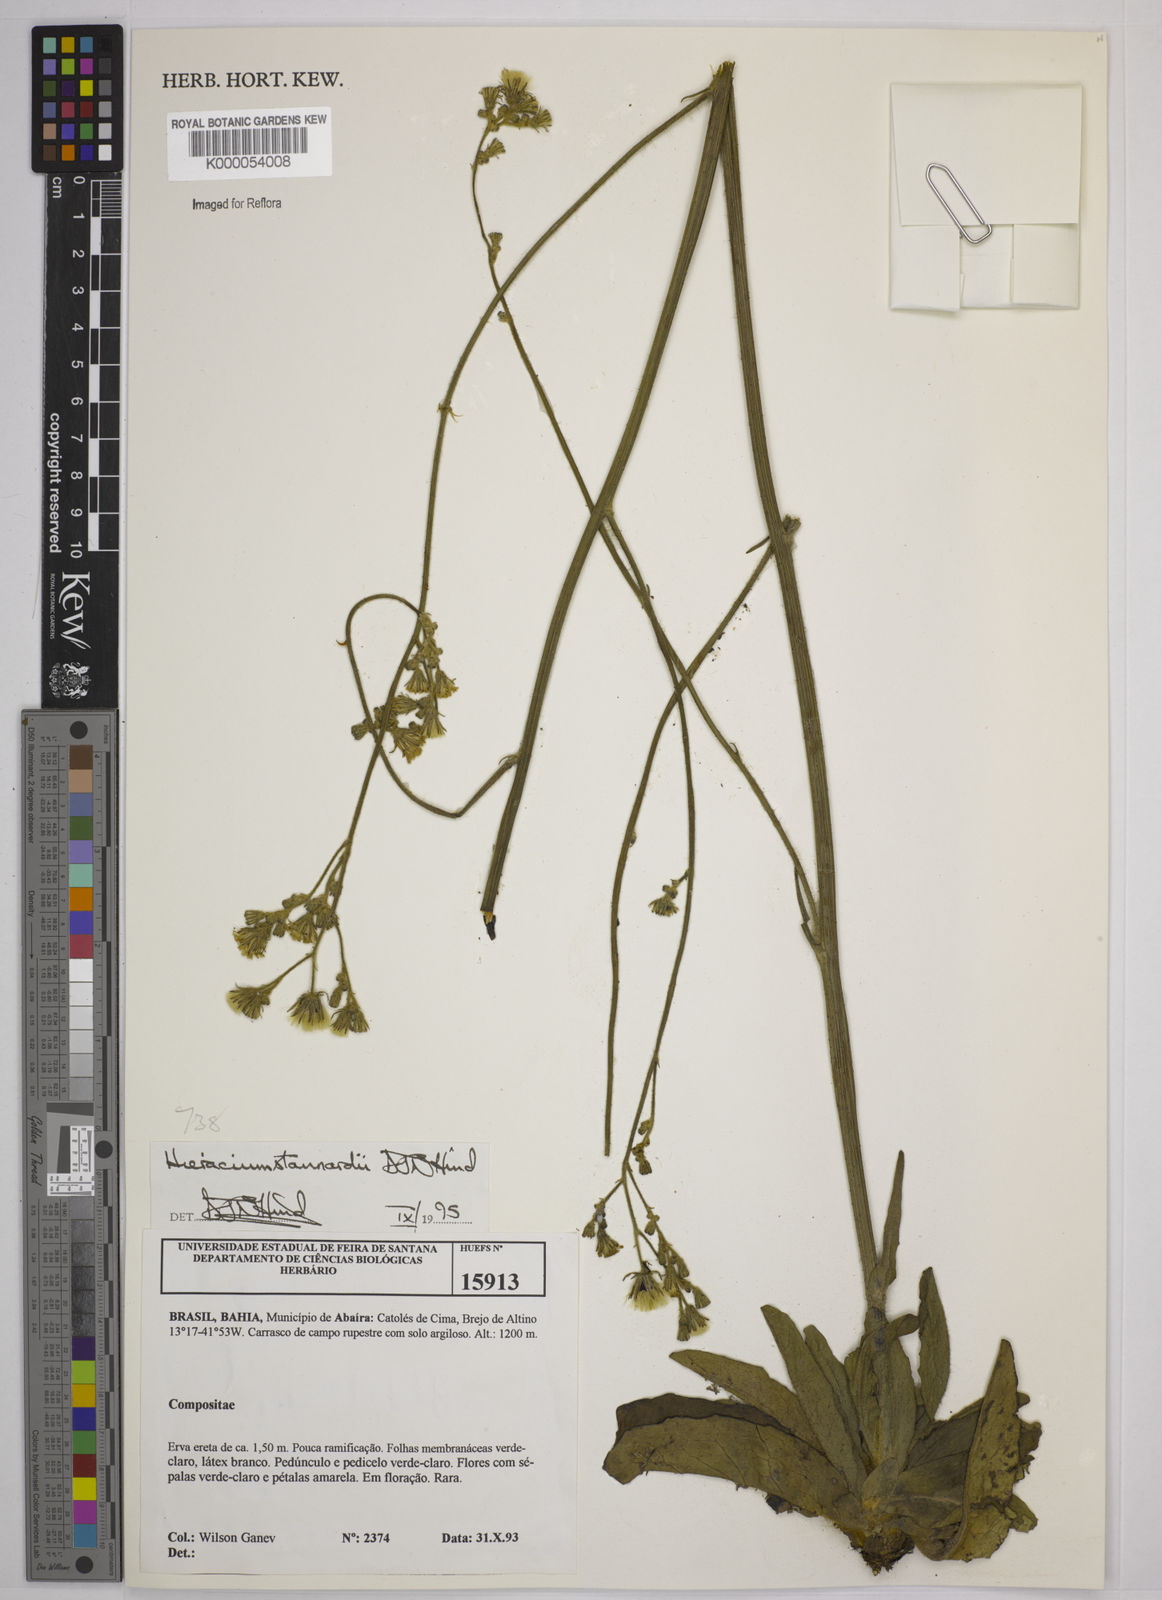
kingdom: Plantae
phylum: Tracheophyta
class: Magnoliopsida
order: Asterales
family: Asteraceae
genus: Hieracium
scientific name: Hieracium stannardii
